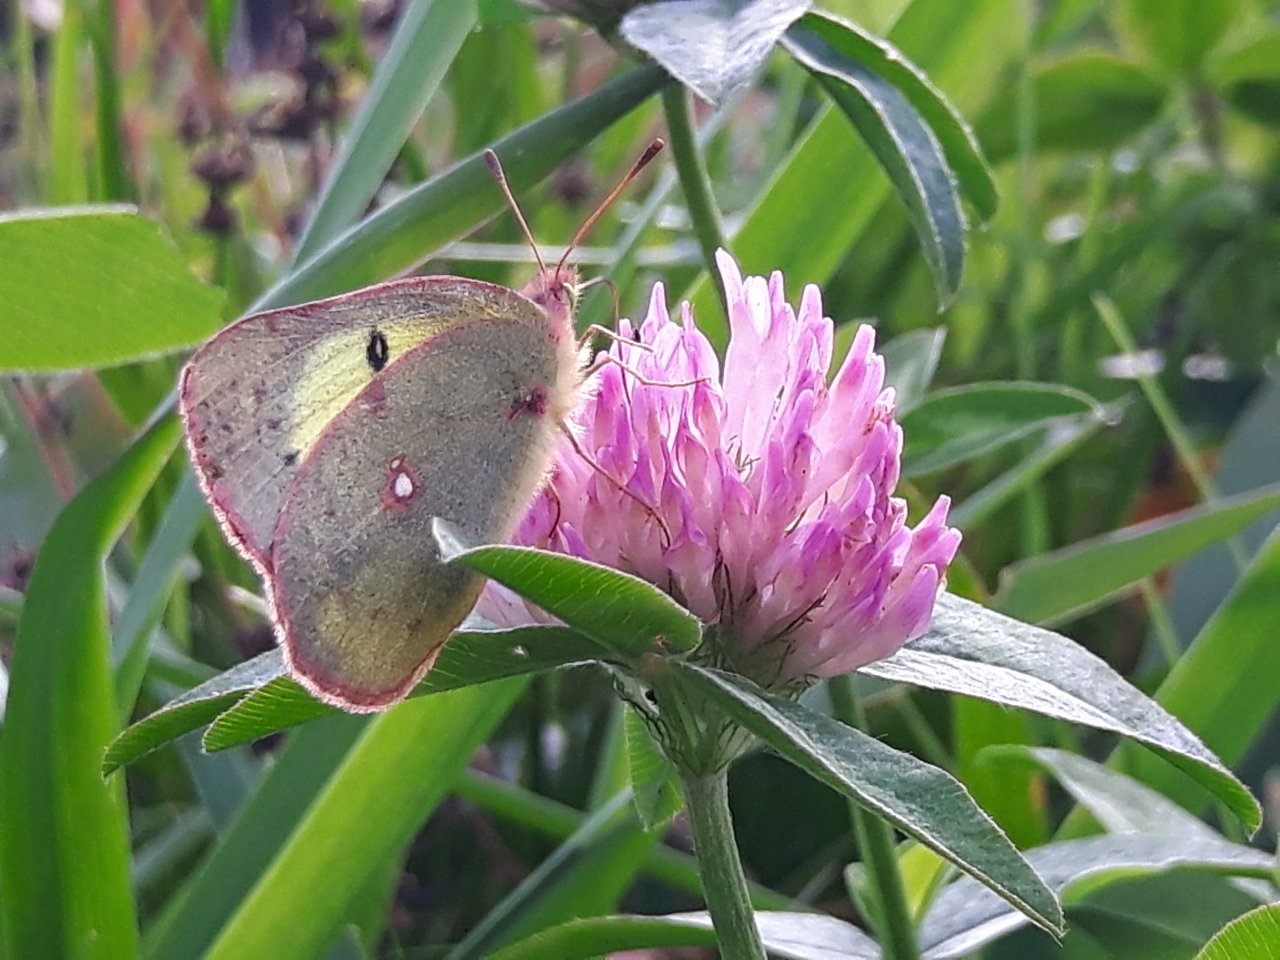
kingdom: Animalia
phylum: Arthropoda
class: Insecta
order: Lepidoptera
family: Pieridae
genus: Colias
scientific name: Colias philodice
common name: Clouded Sulphur
